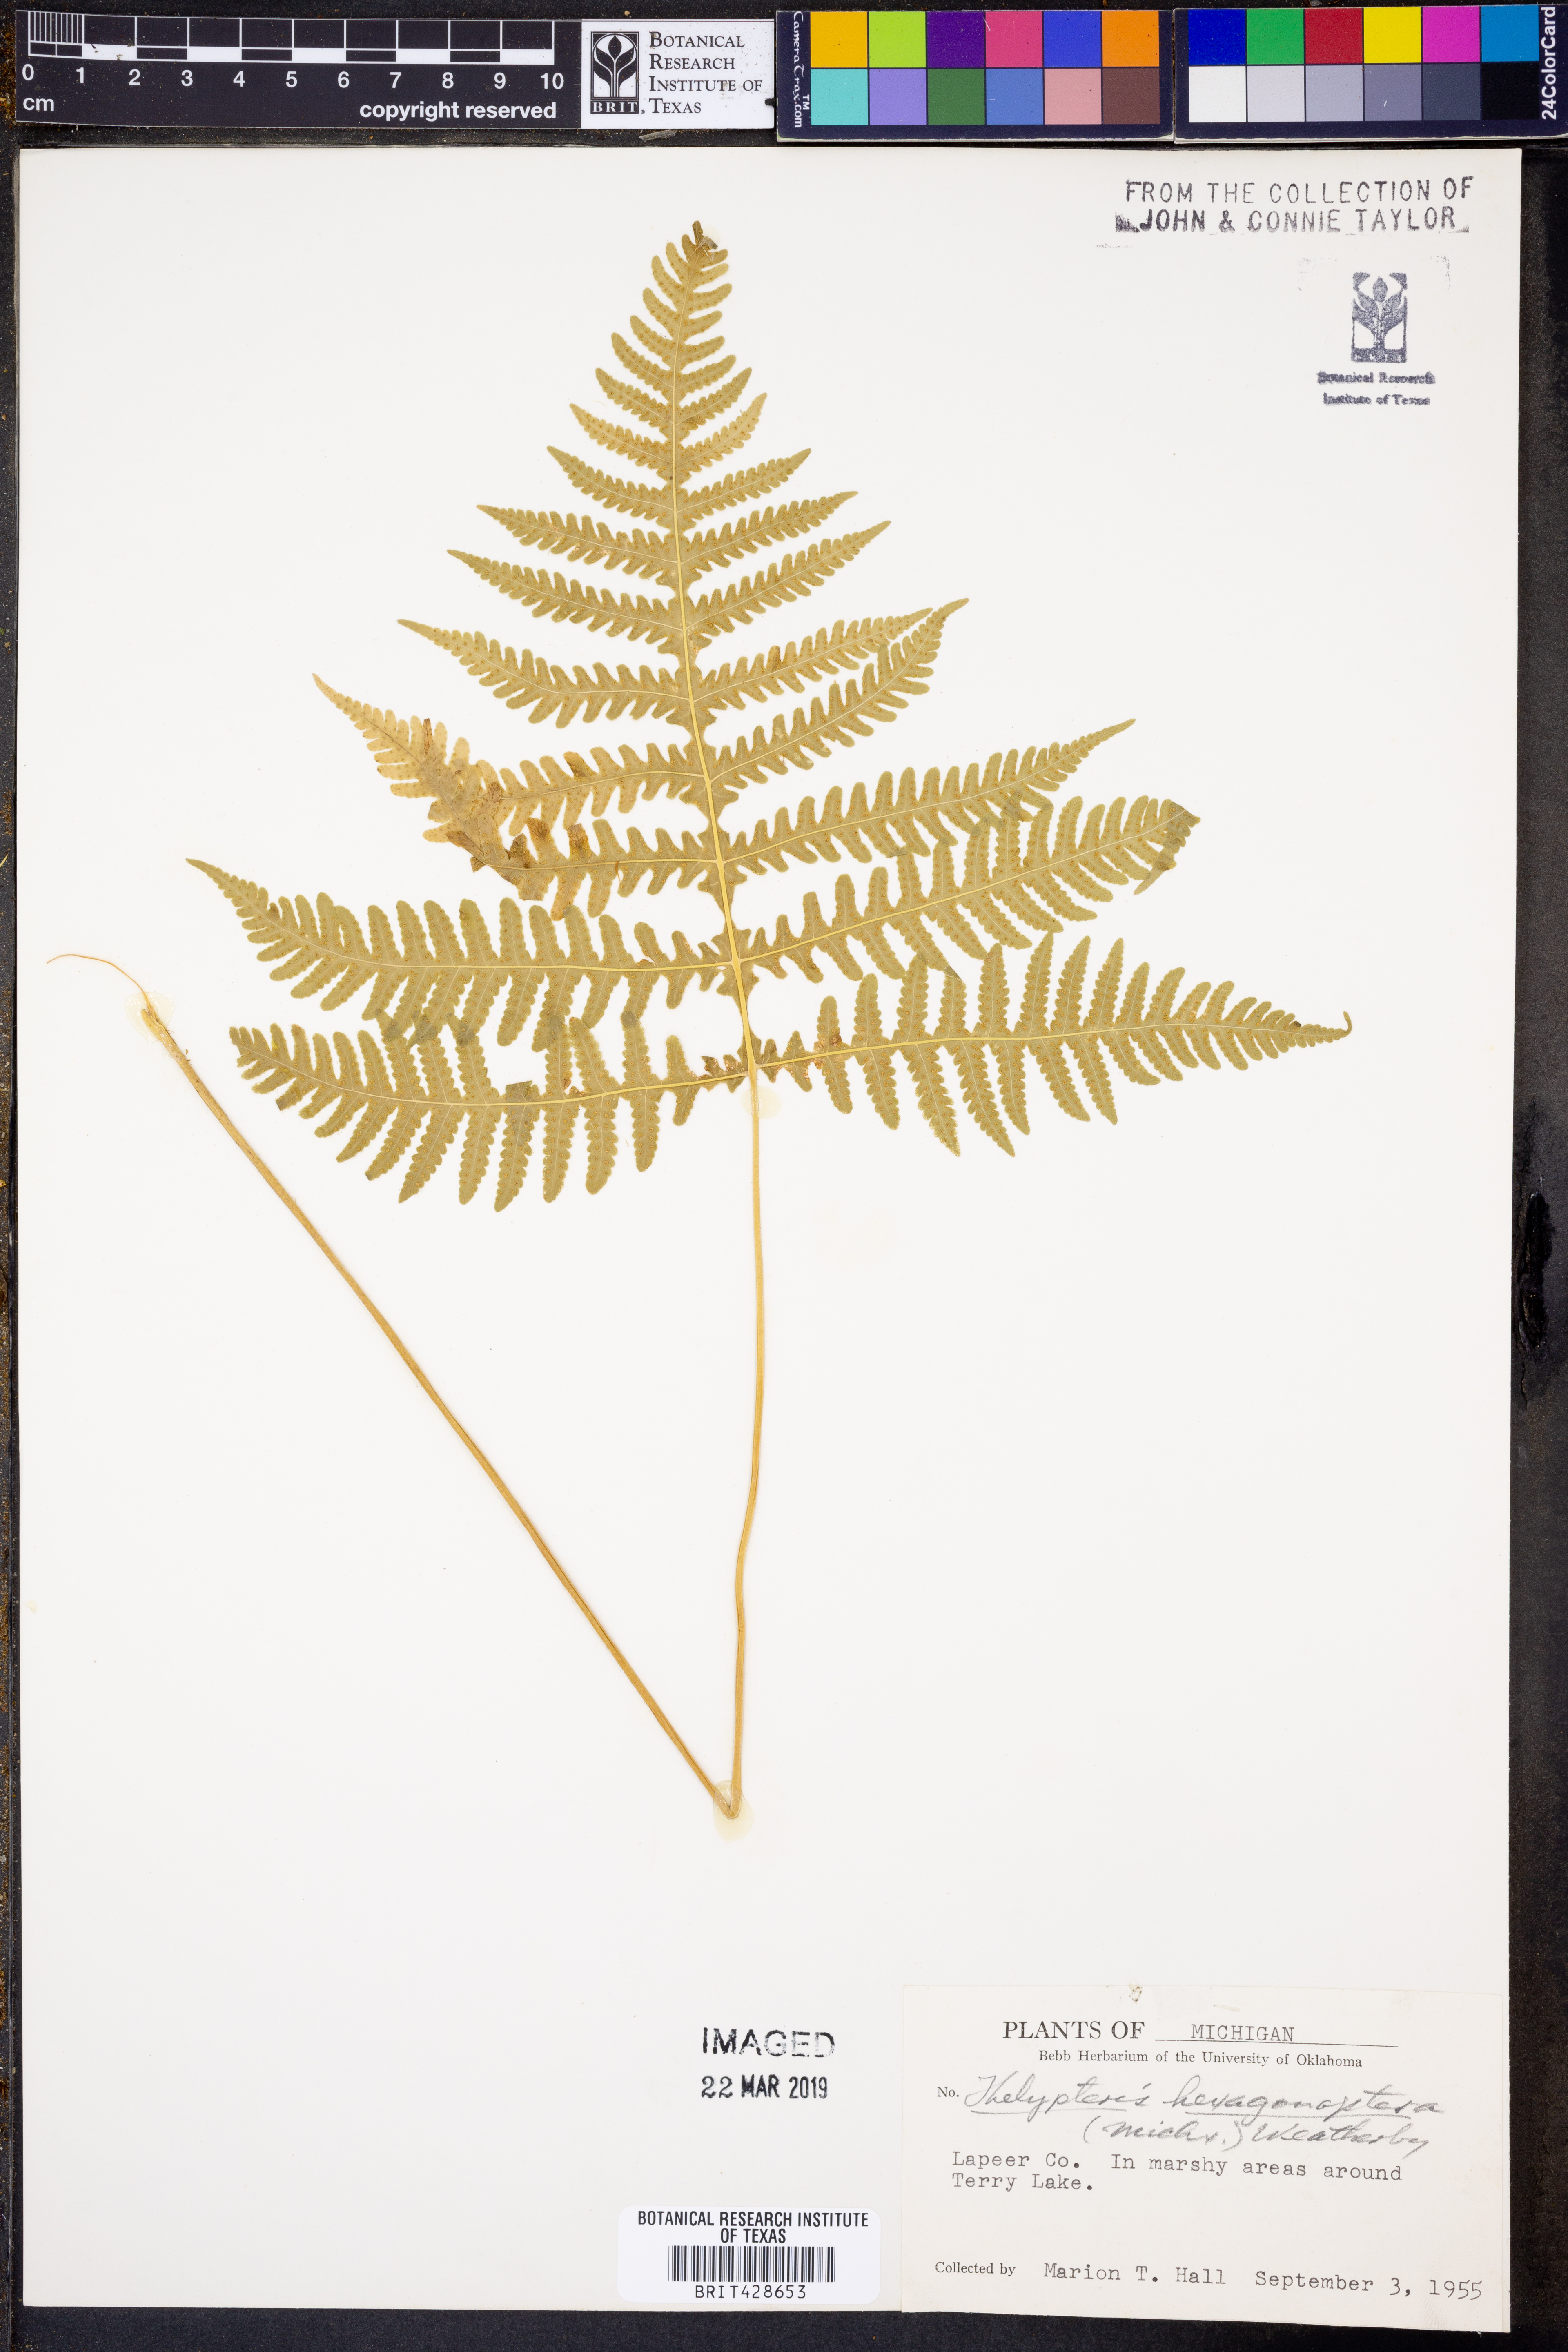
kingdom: Plantae
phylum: Tracheophyta
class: Polypodiopsida
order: Polypodiales
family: Thelypteridaceae
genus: Phegopteris
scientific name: Phegopteris hexagonoptera
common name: Broad beech fern
